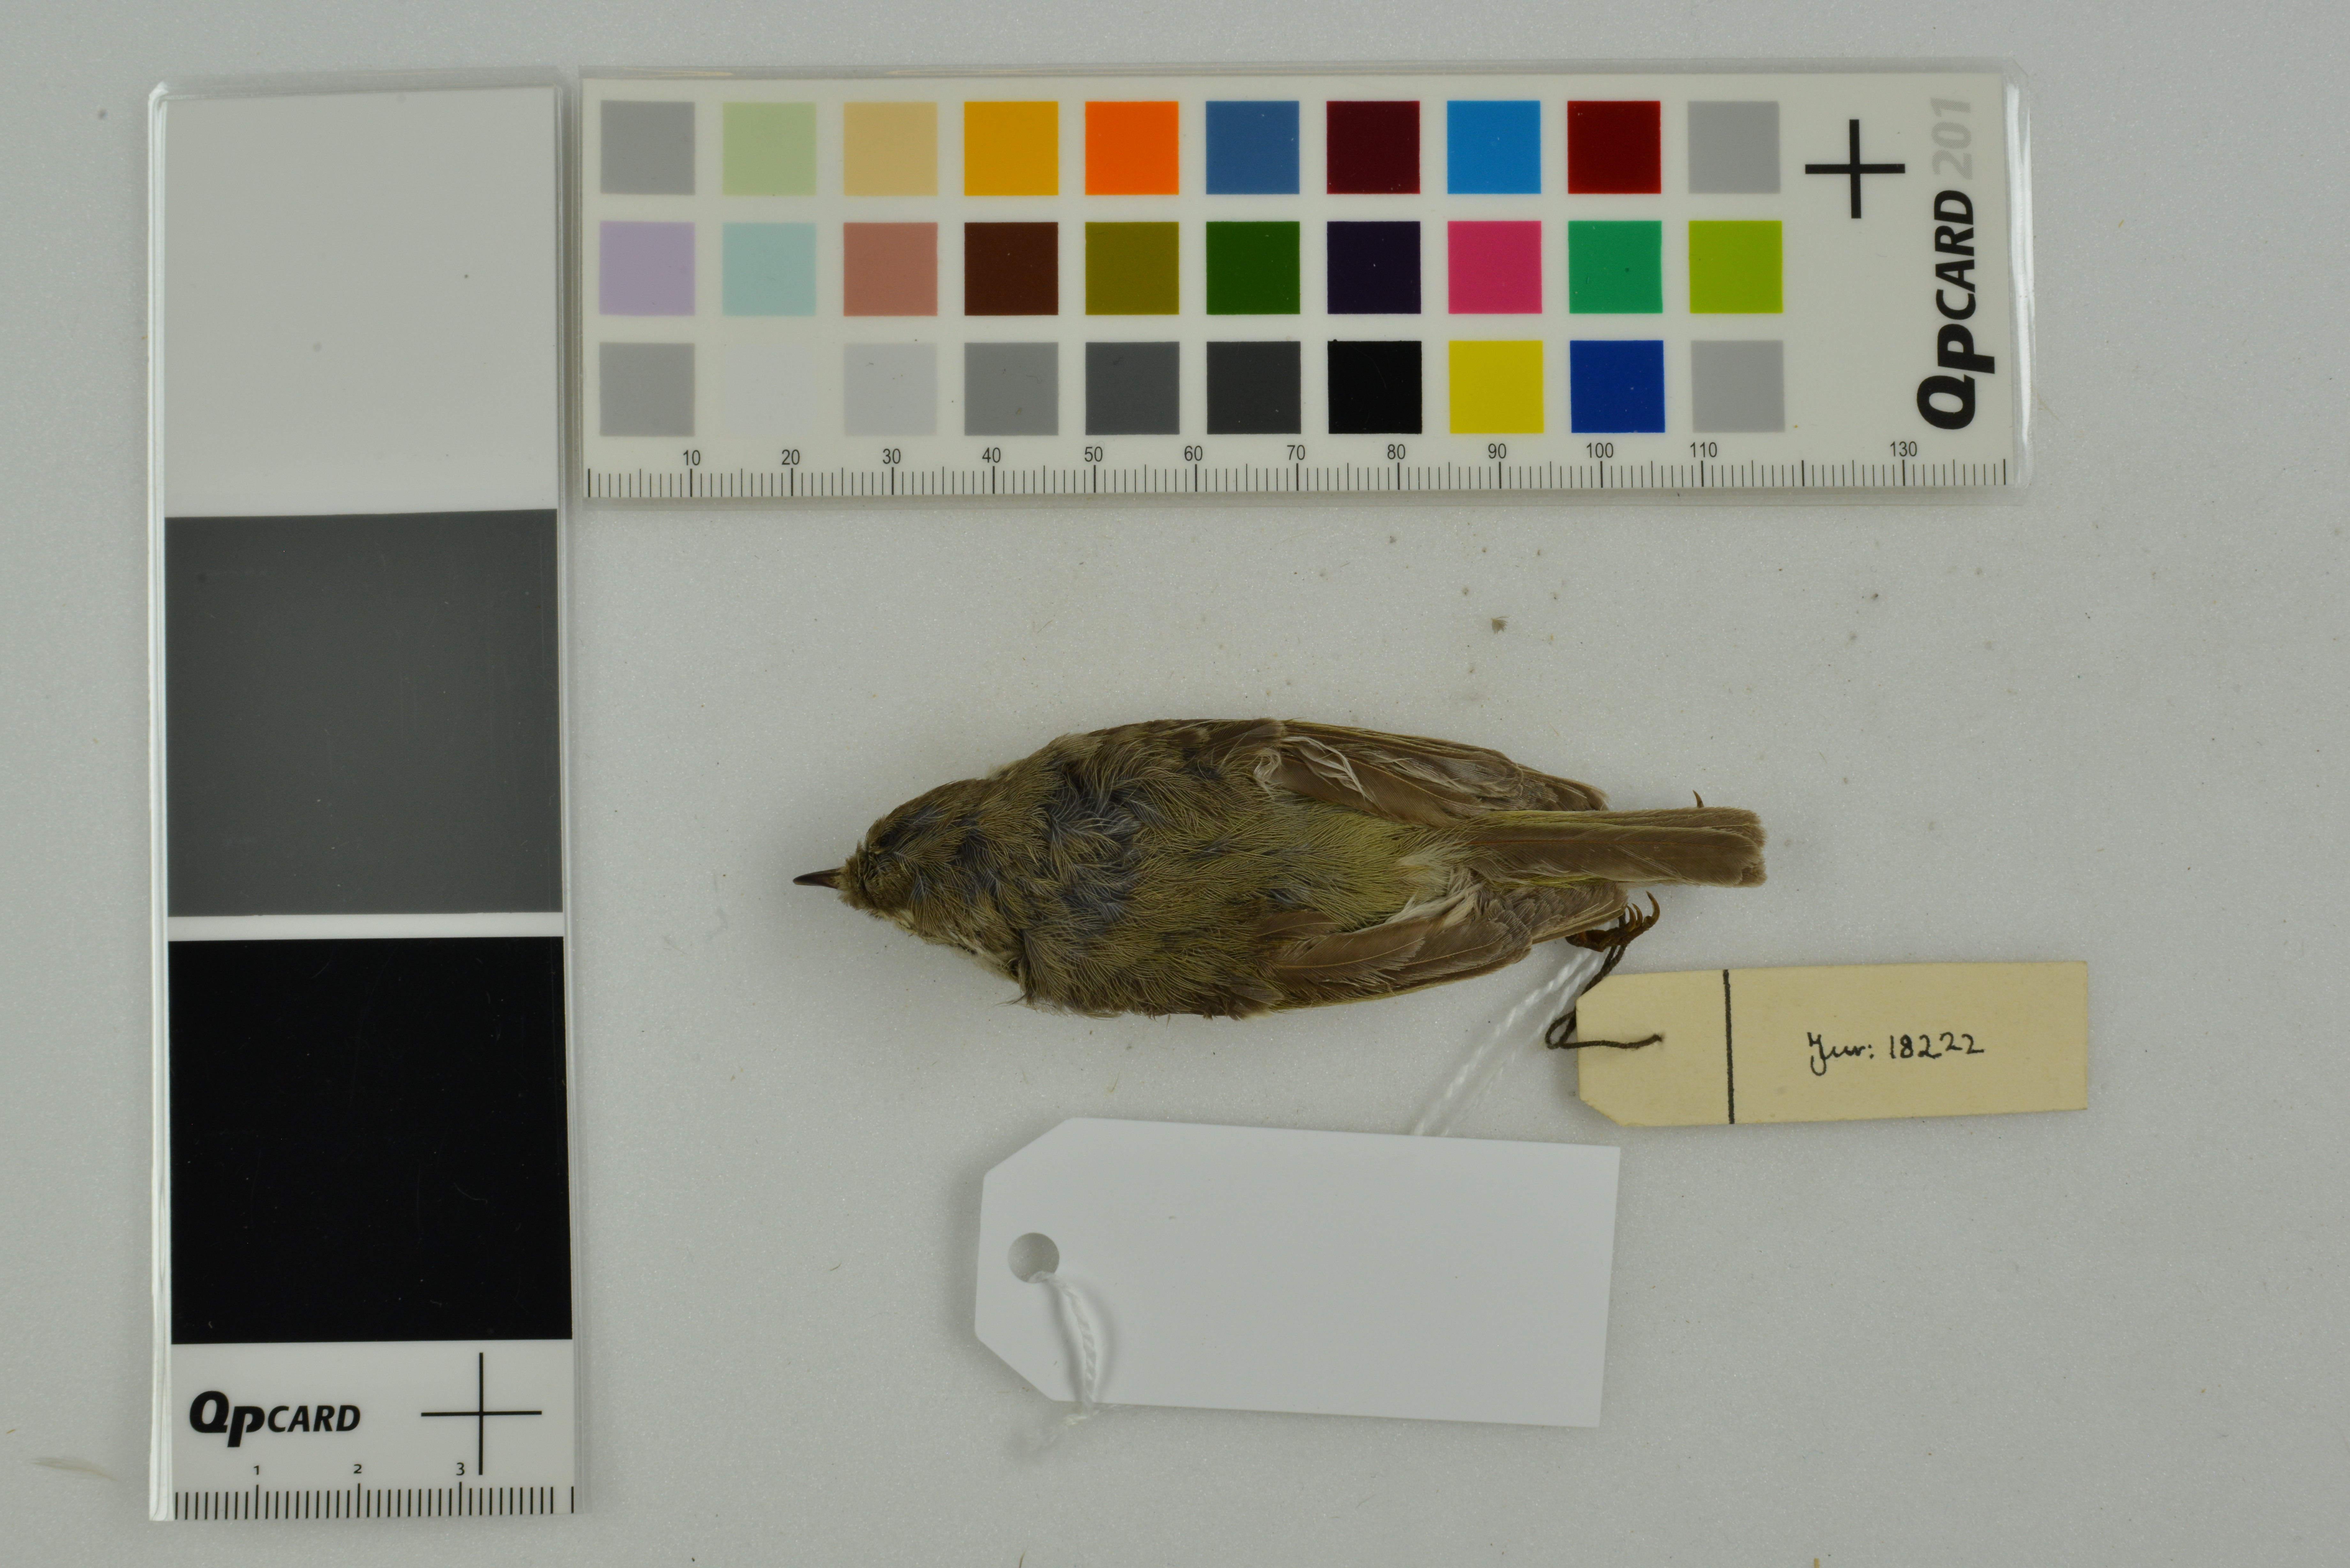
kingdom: Animalia
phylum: Chordata
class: Aves
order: Passeriformes
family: Phylloscopidae
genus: Phylloscopus
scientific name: Phylloscopus proregulus
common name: Pallas's leaf warbler
